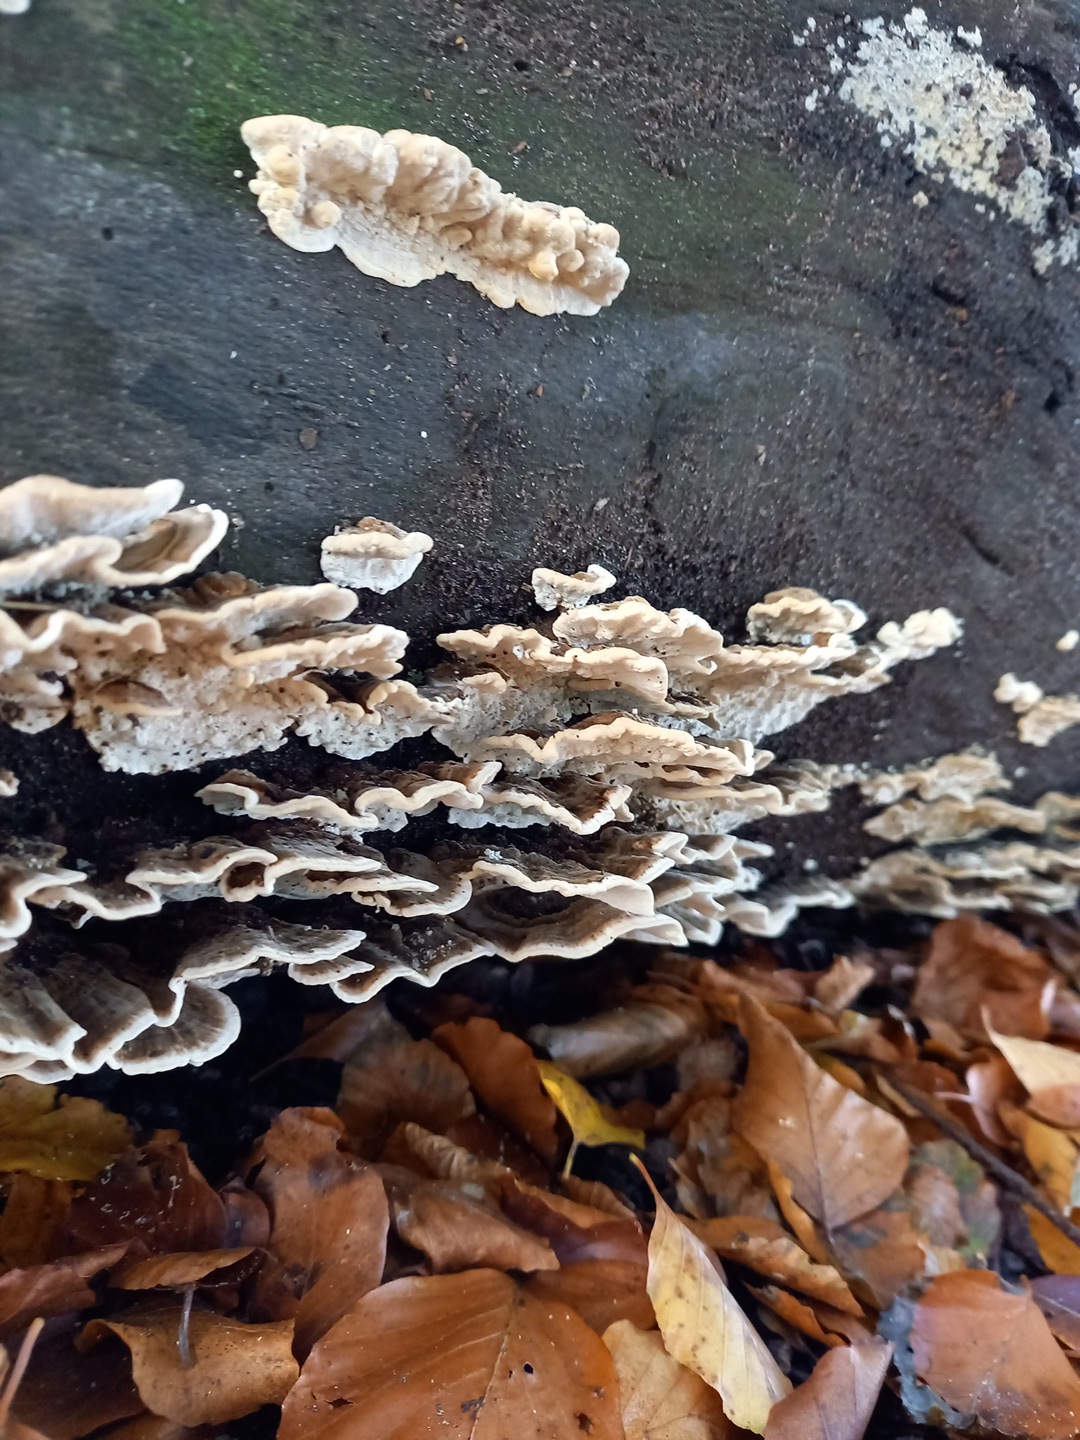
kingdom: Fungi
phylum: Basidiomycota
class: Agaricomycetes
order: Polyporales
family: Polyporaceae
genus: Trametes
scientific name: Trametes versicolor
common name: broget læderporesvamp
